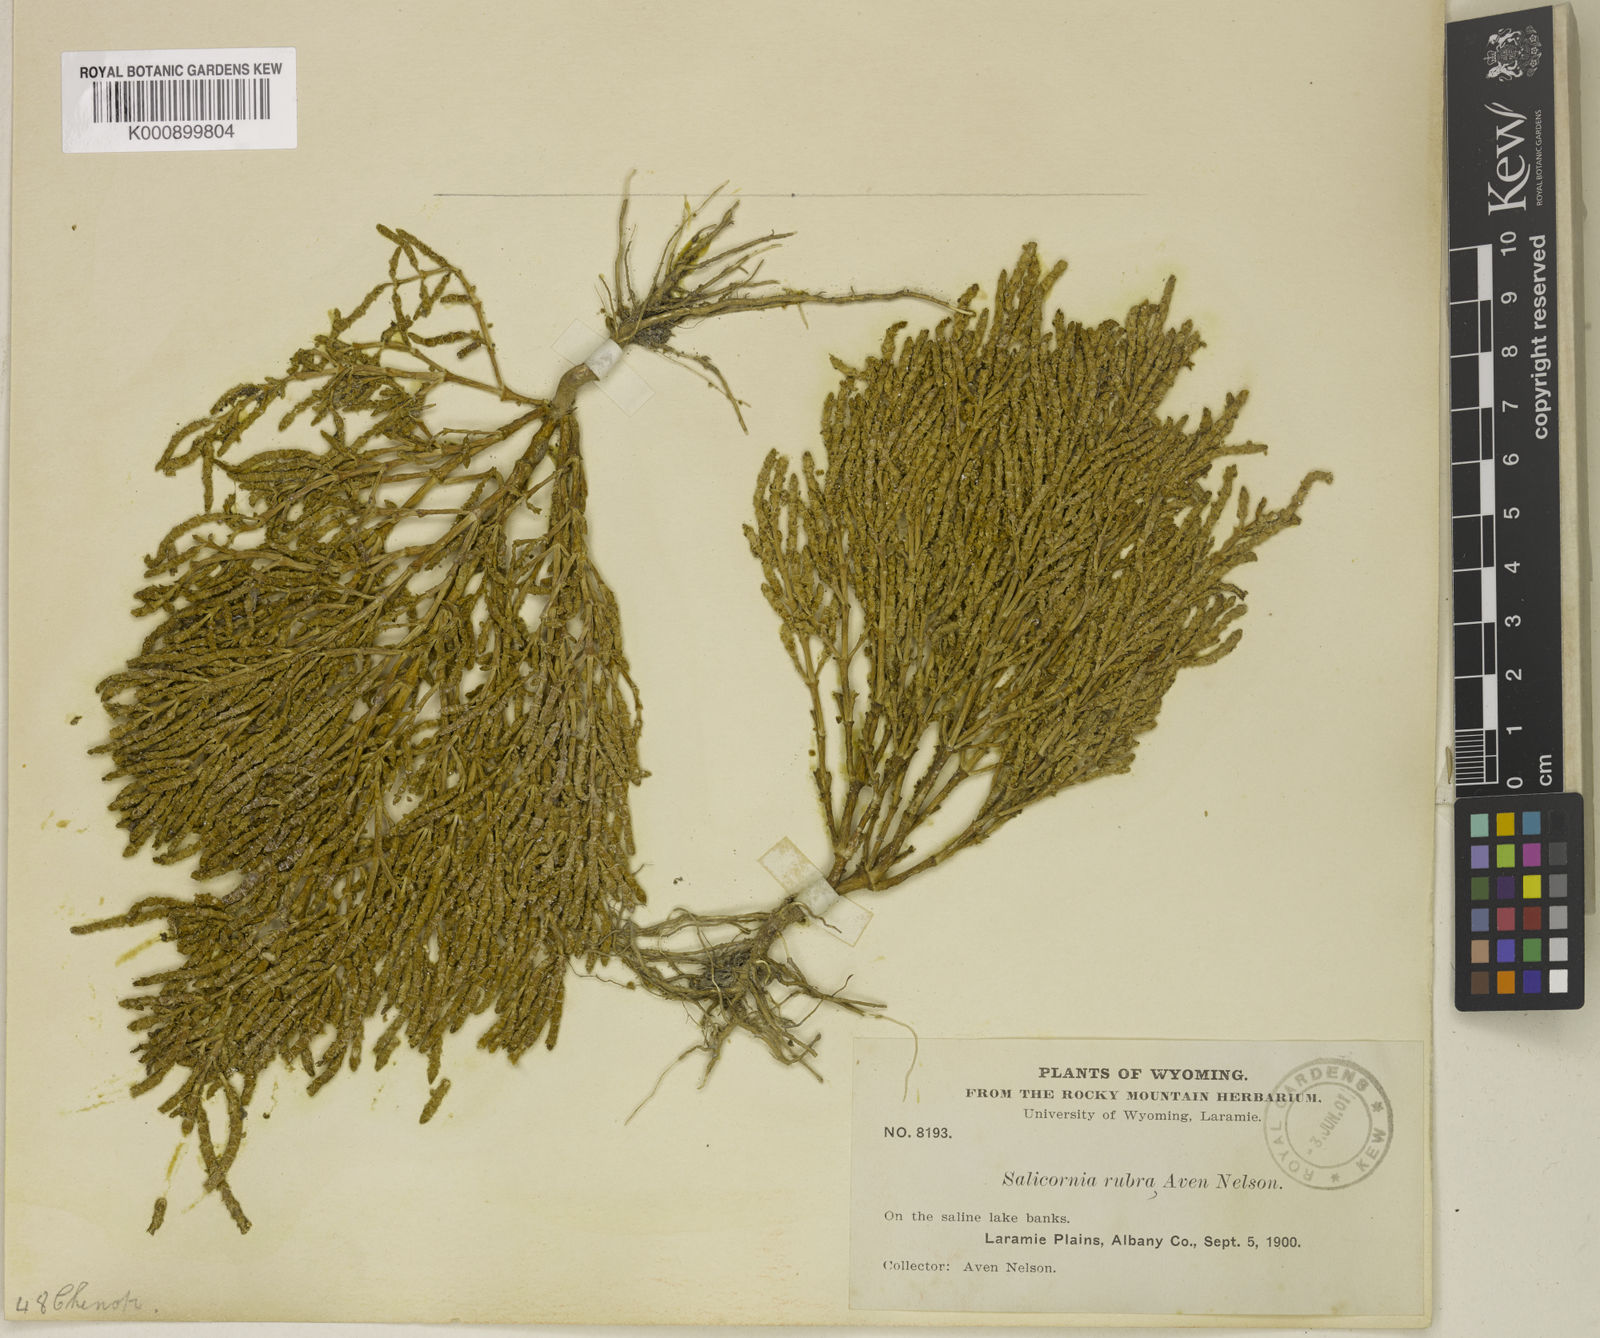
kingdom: Plantae
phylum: Tracheophyta
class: Magnoliopsida
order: Caryophyllales
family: Amaranthaceae
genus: Salicornia
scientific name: Salicornia rubra
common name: Red glasswort
